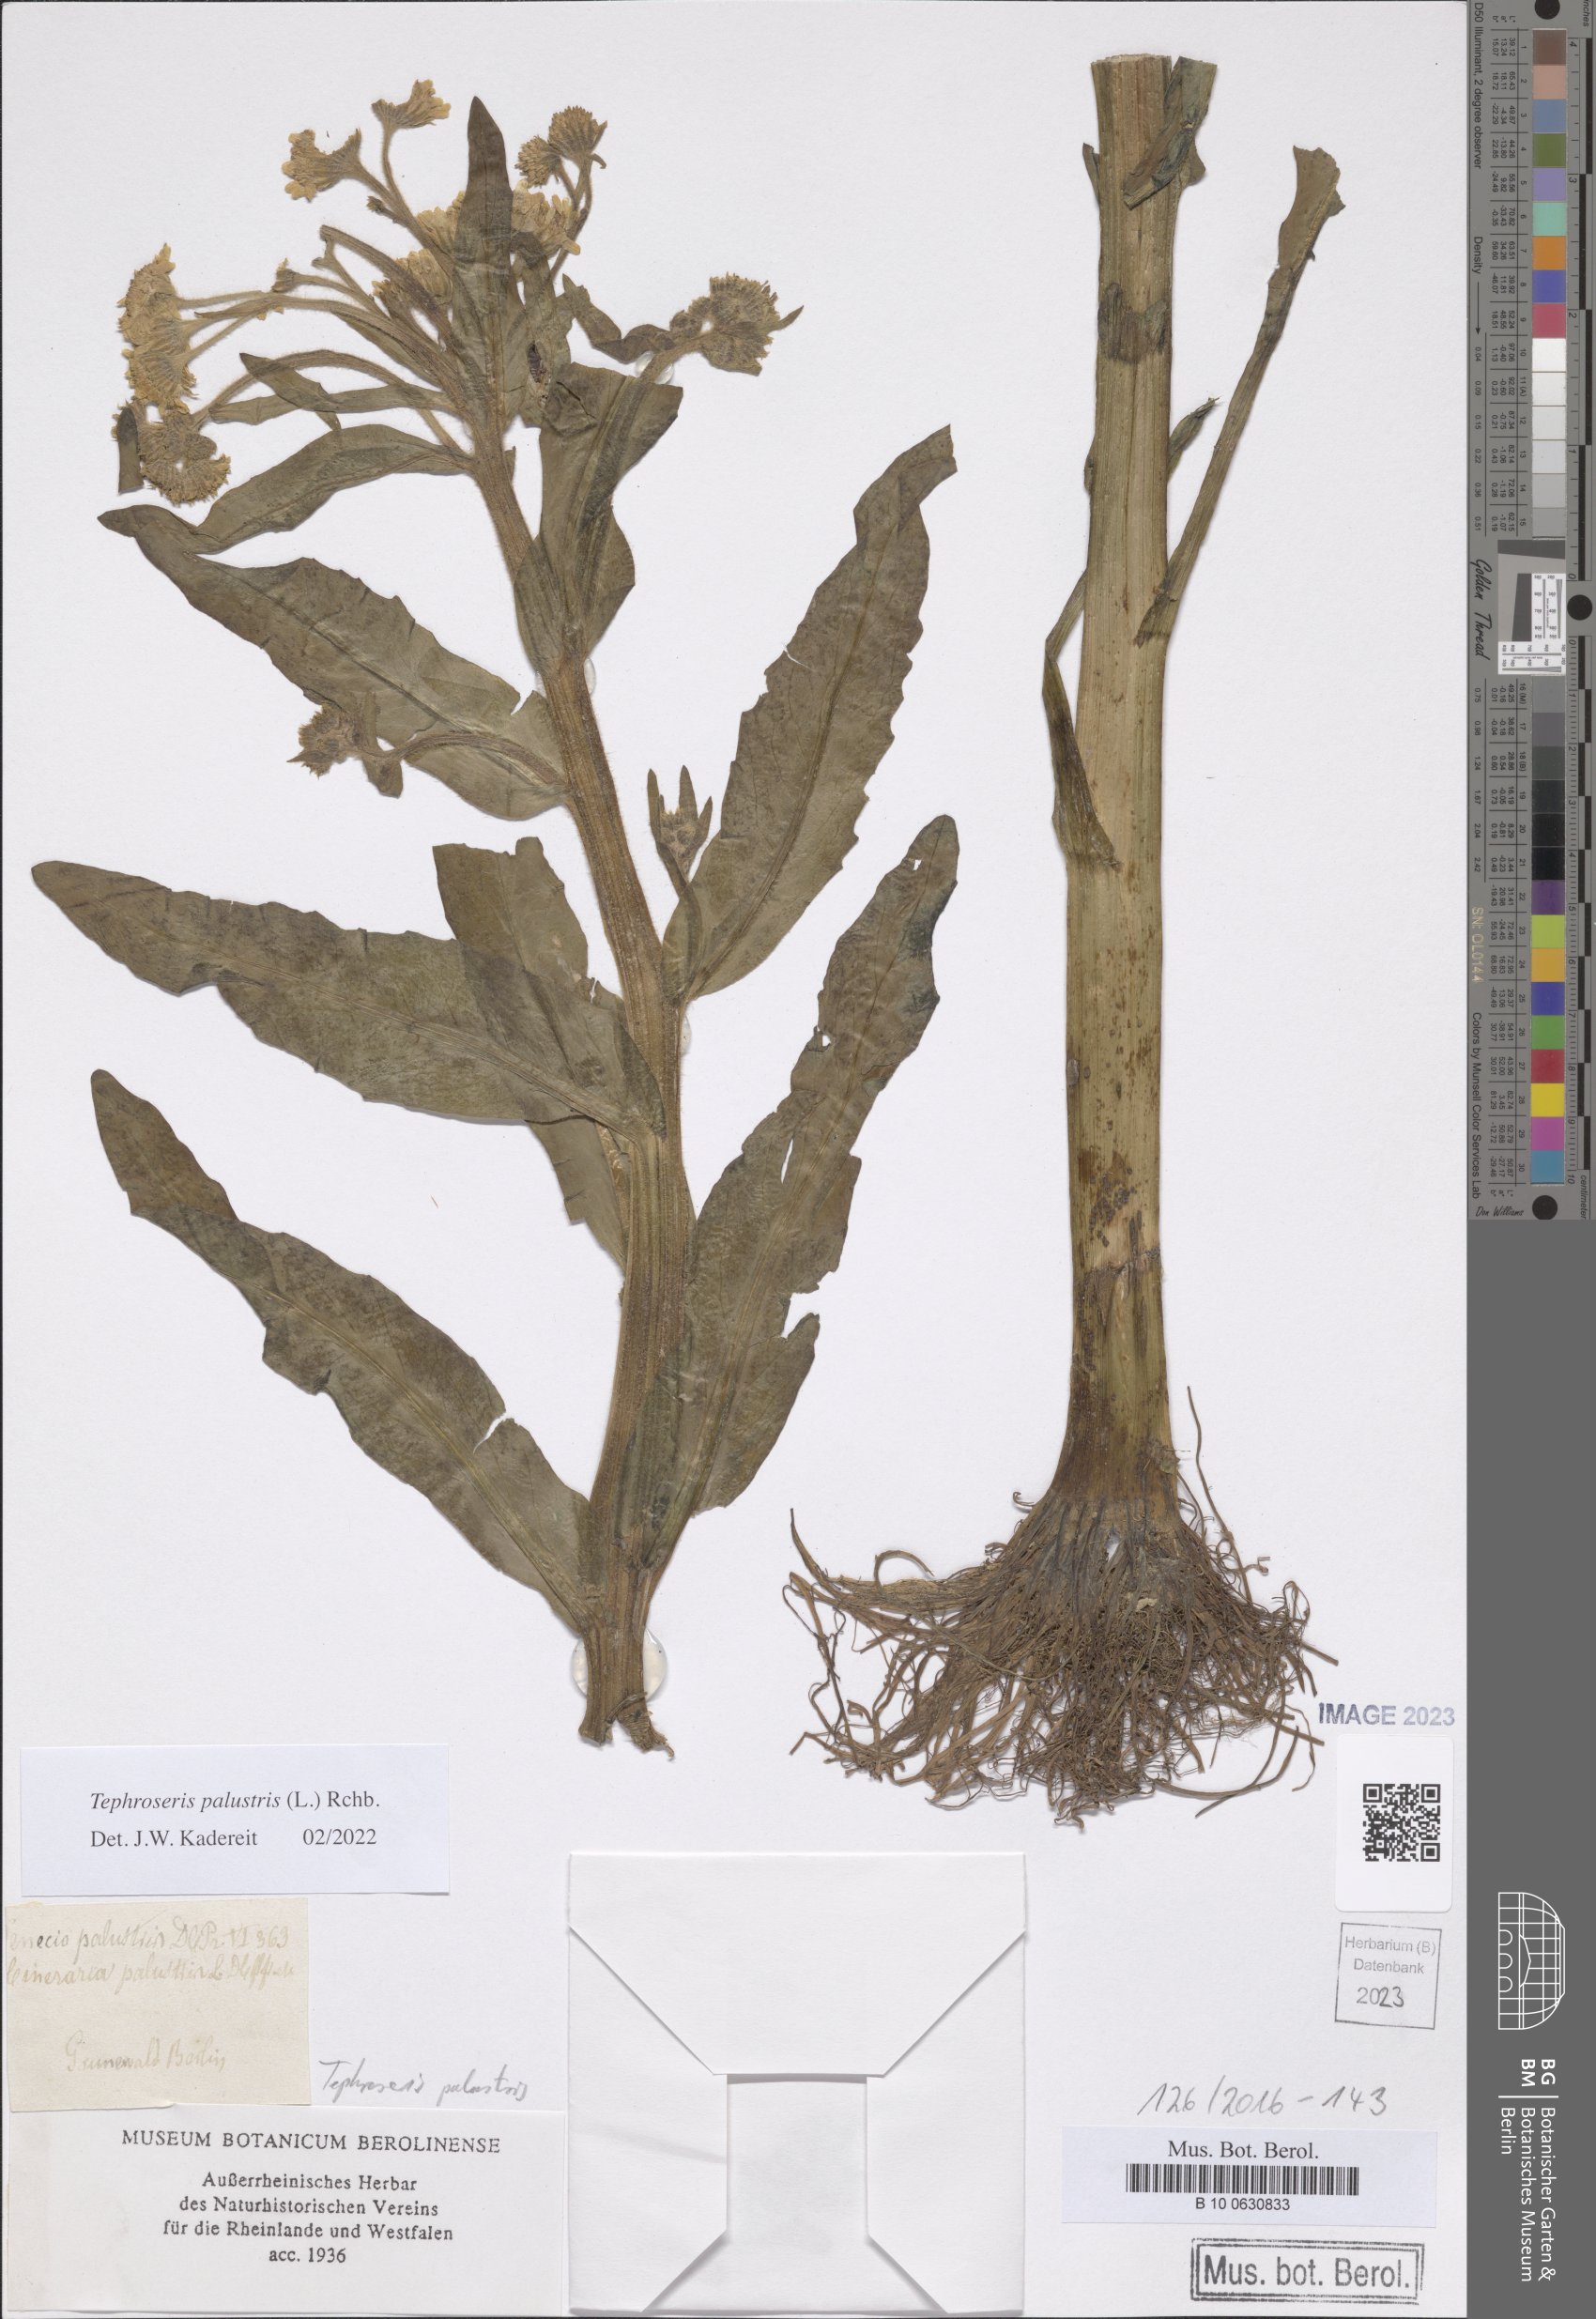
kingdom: Plantae
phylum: Tracheophyta
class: Magnoliopsida
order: Asterales
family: Asteraceae
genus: Tephroseris
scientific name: Tephroseris palustris
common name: Marsh fleawort
